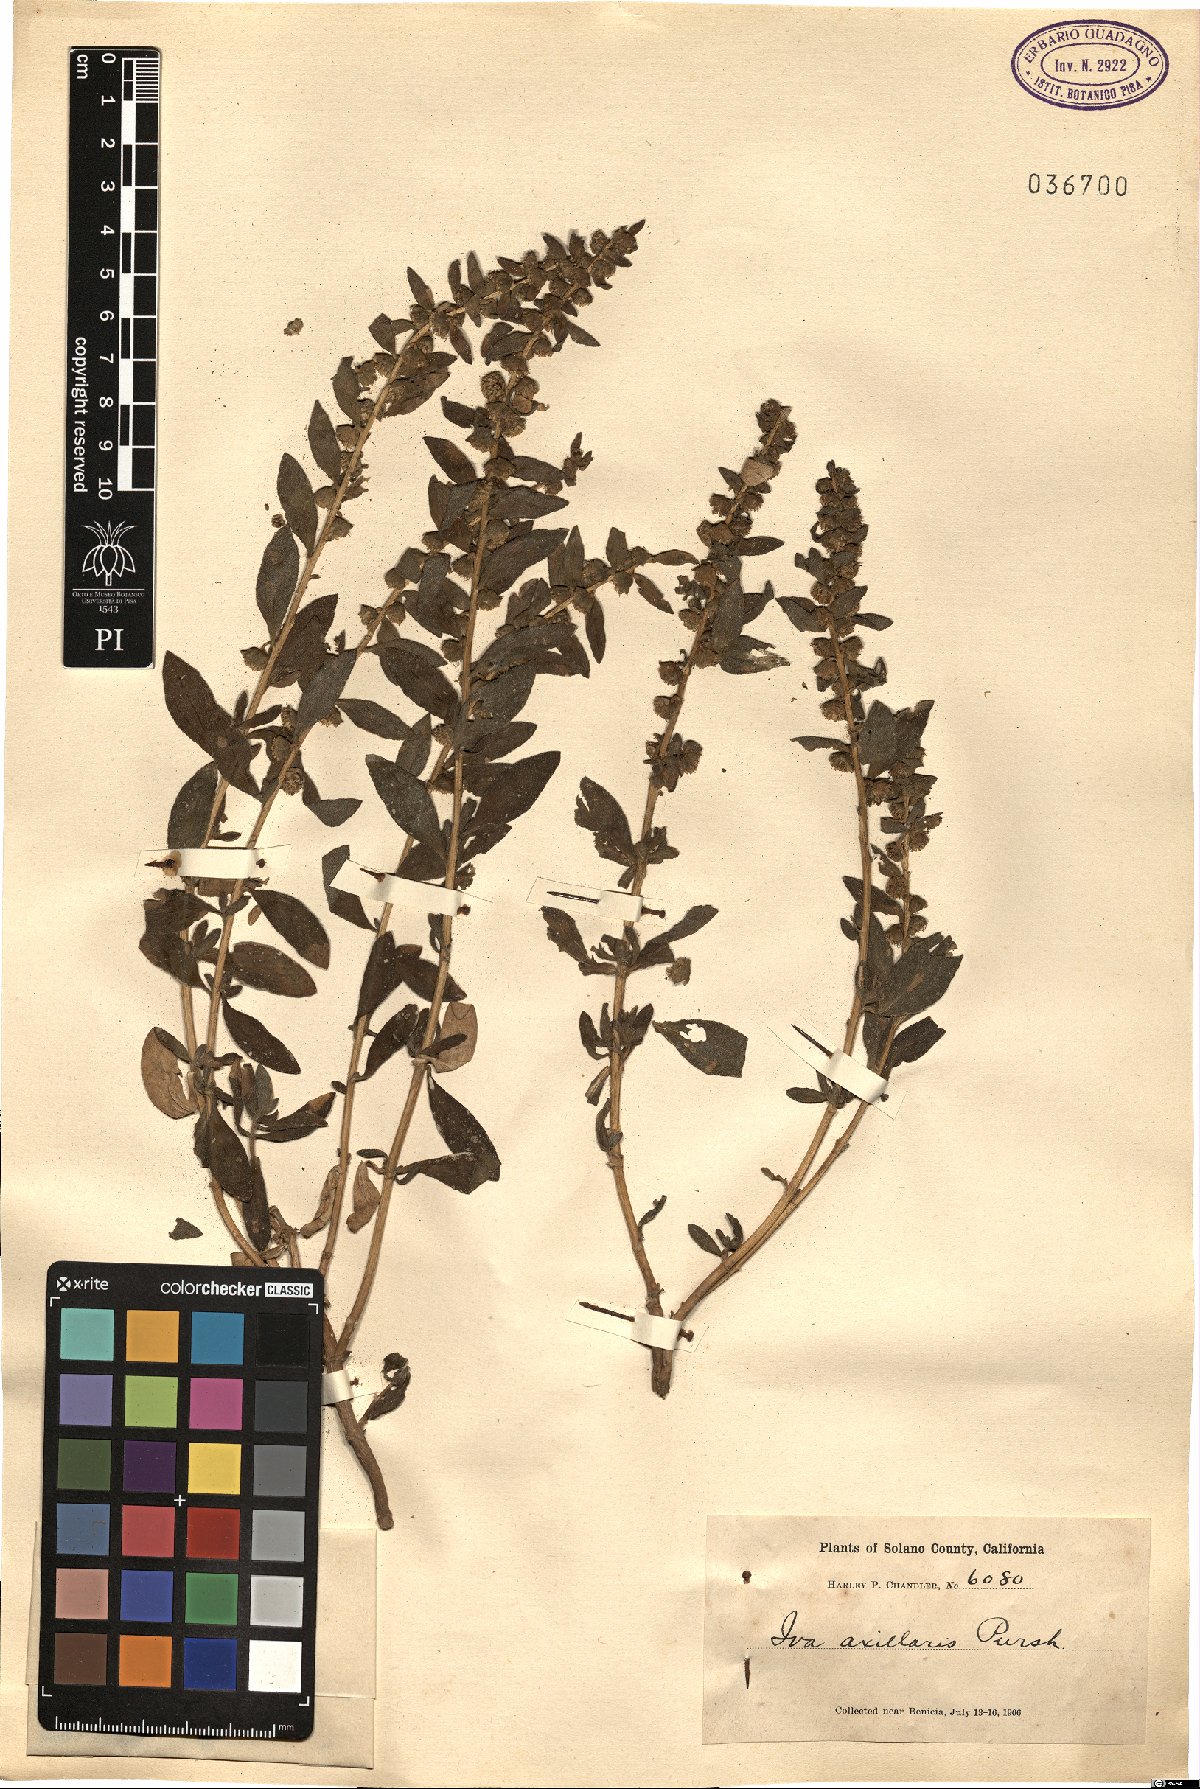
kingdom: Plantae
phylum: Tracheophyta
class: Magnoliopsida
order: Asterales
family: Asteraceae
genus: Iva
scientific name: Iva axillaris
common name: Poverty sumpweed
